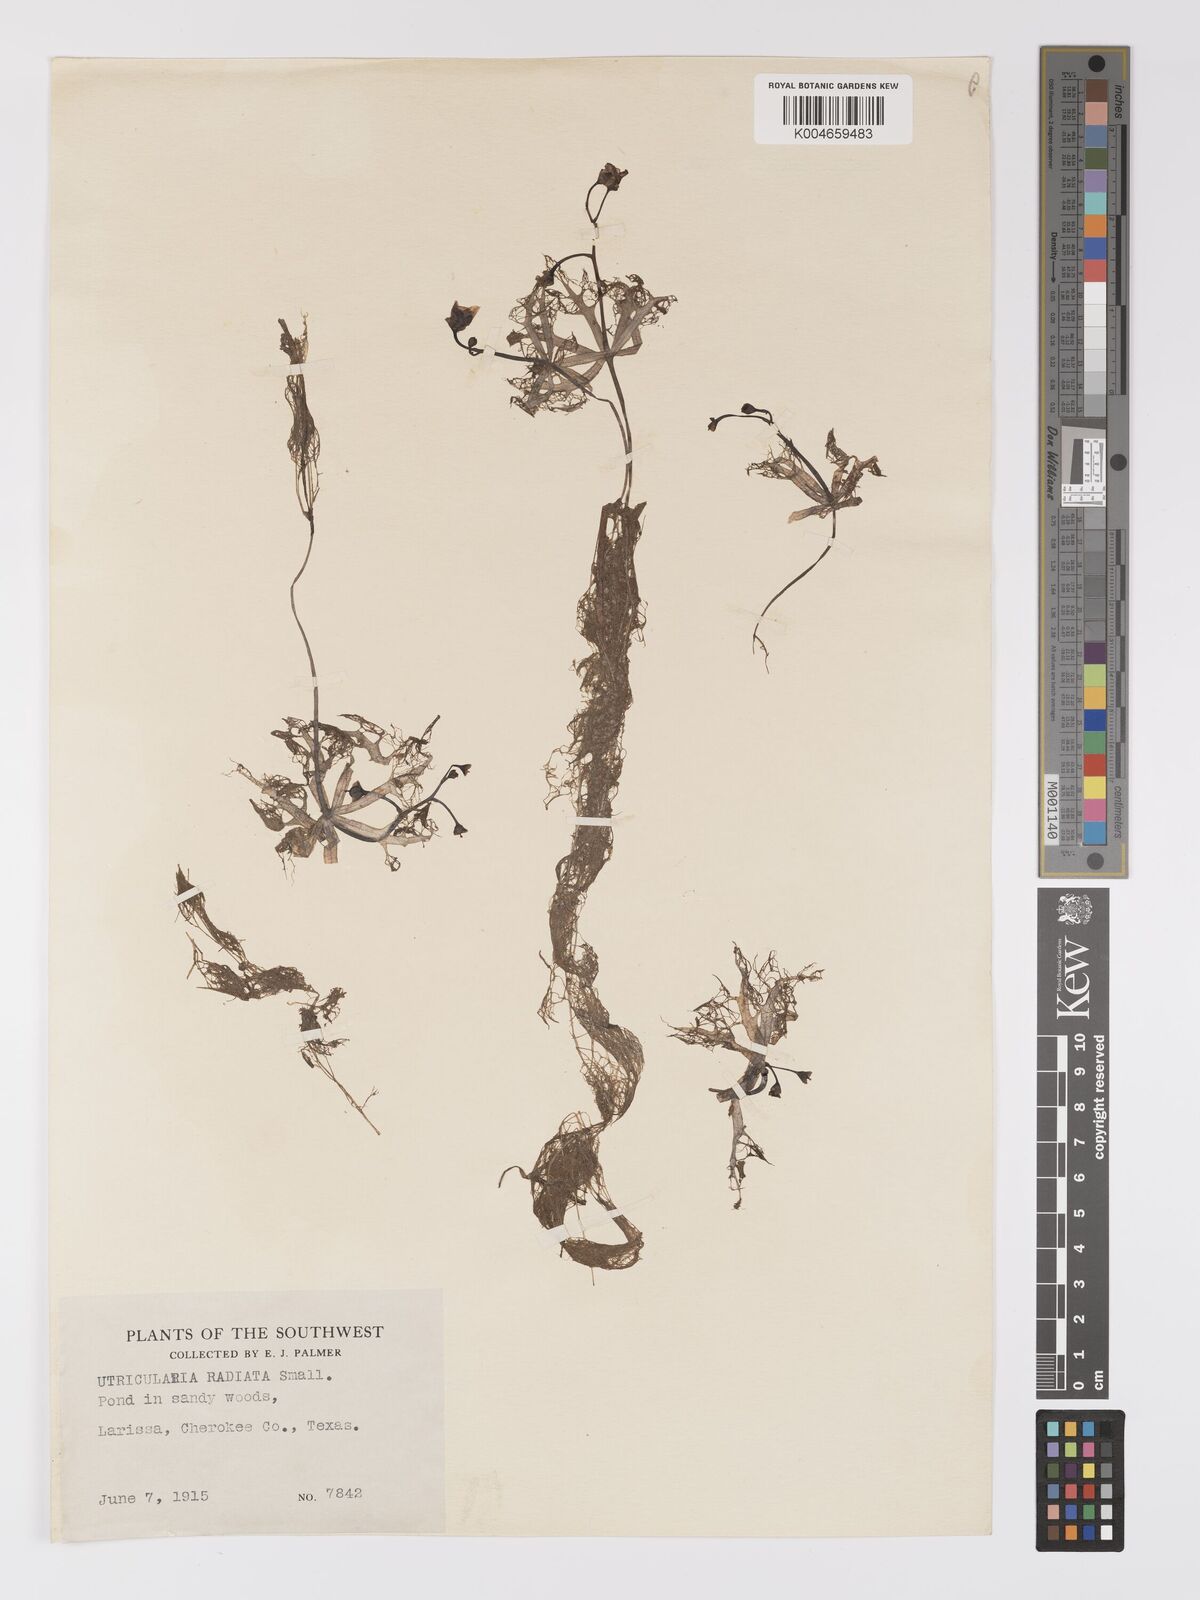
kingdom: Plantae
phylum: Tracheophyta
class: Magnoliopsida
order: Lamiales
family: Lentibulariaceae
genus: Utricularia
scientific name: Utricularia radiata
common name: Floating bladderwort
